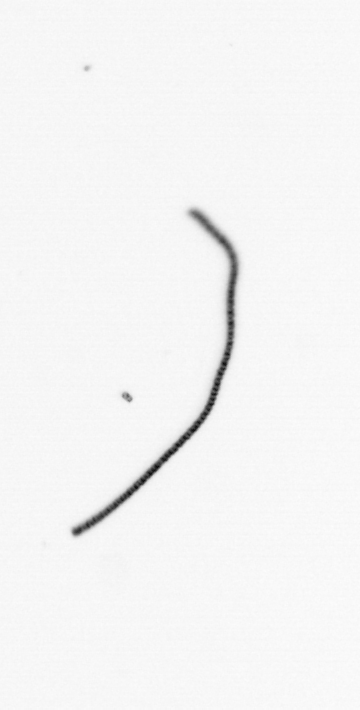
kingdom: Chromista
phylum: Ochrophyta
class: Bacillariophyceae
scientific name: Bacillariophyceae
